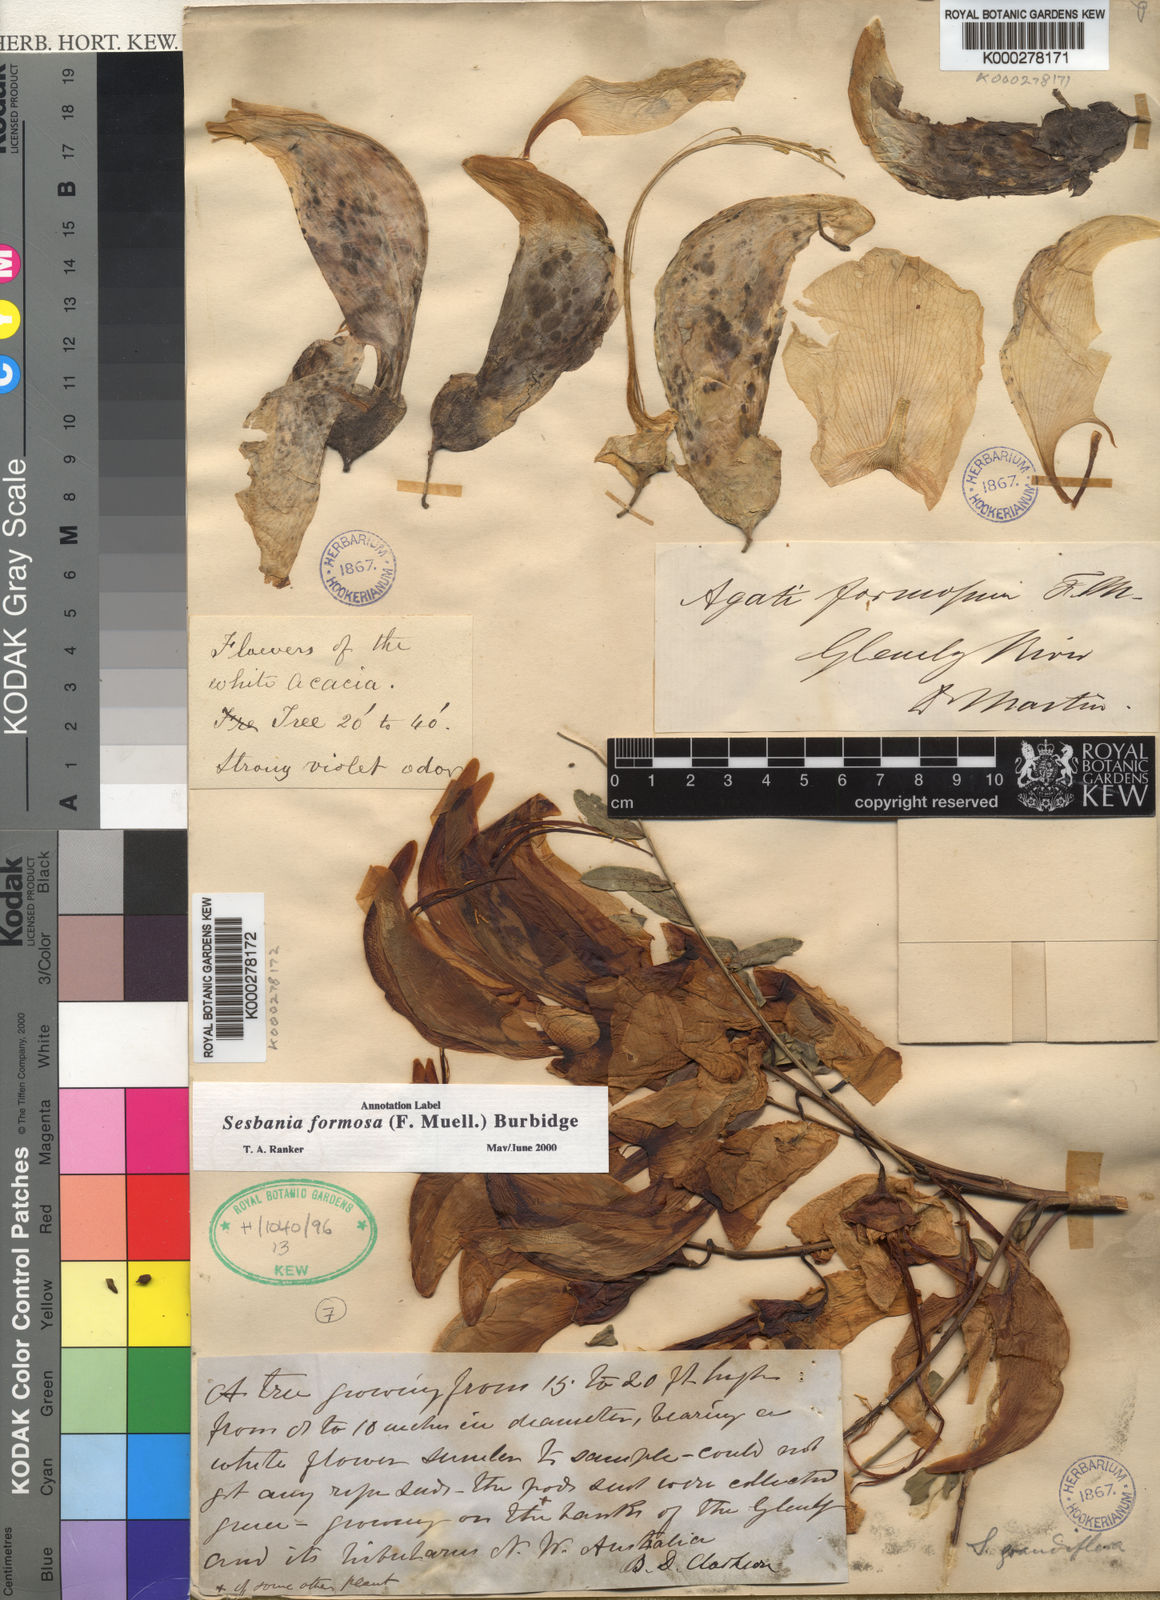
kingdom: Plantae
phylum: Tracheophyta
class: Magnoliopsida
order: Fabales
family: Fabaceae
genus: Sesbania
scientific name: Sesbania formosa
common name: Vegetable-hummingbird
